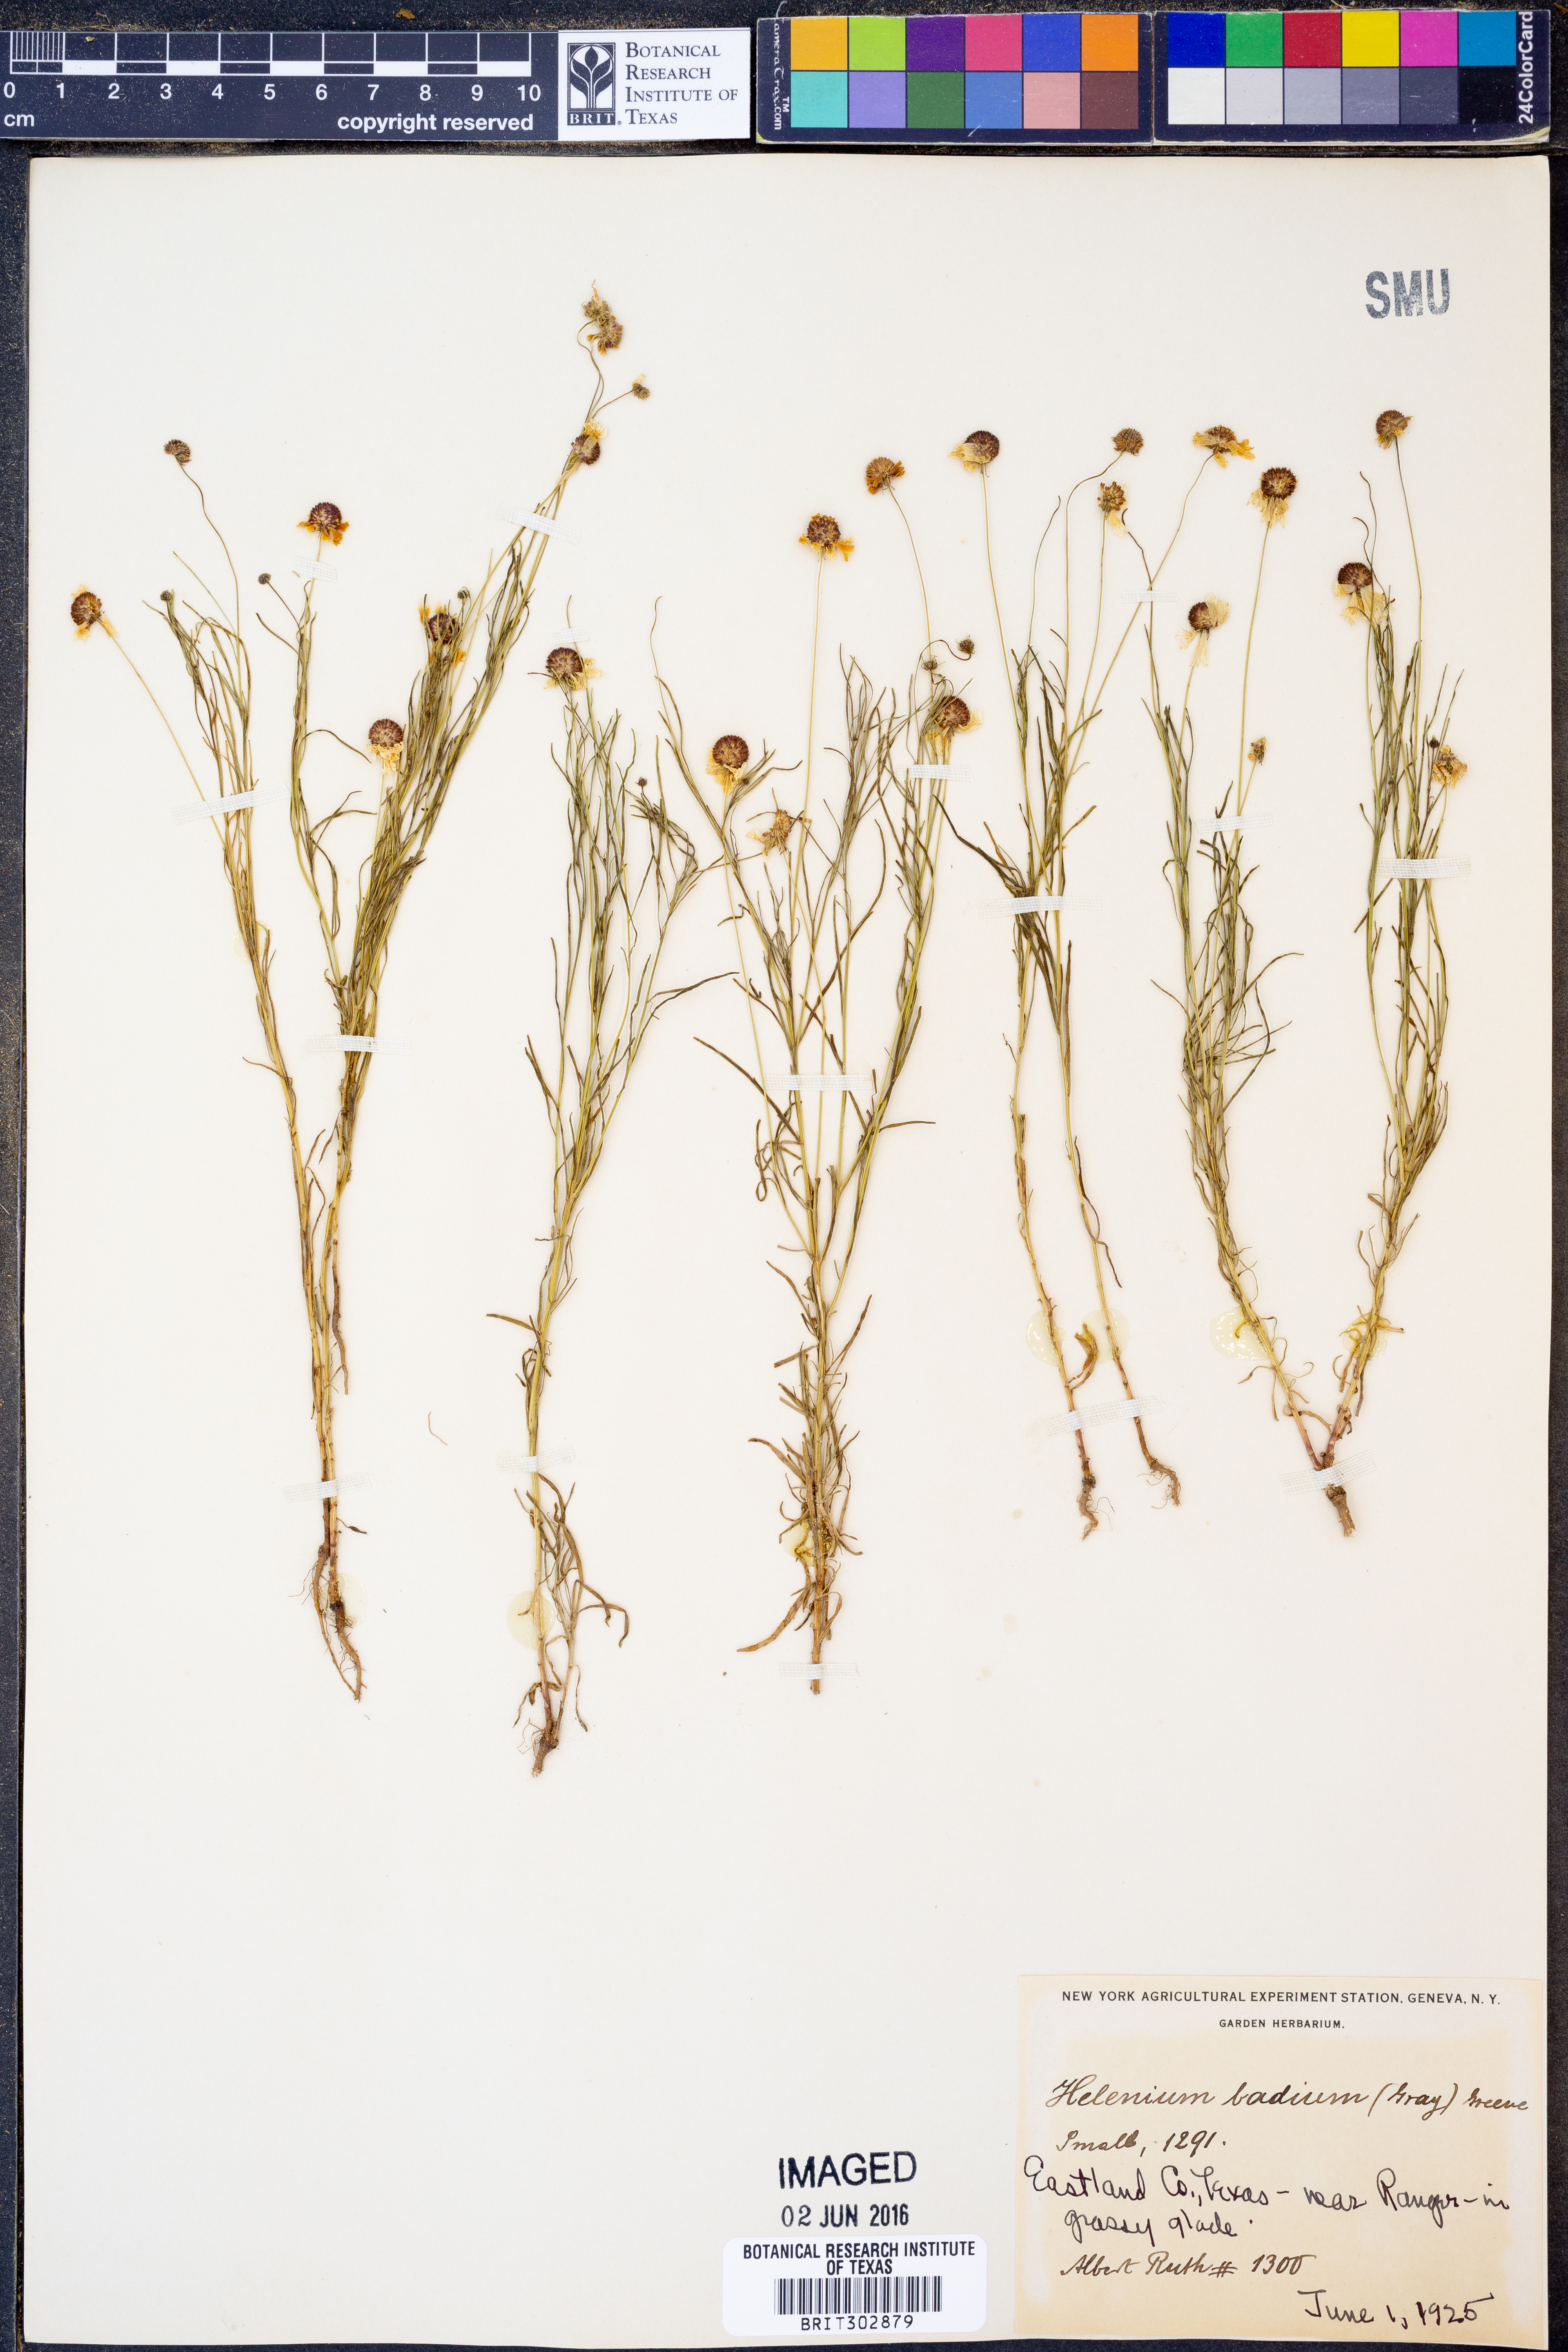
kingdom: Plantae
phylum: Tracheophyta
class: Magnoliopsida
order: Asterales
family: Asteraceae
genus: Helenium
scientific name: Helenium amarum
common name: Bitter sneezeweed
